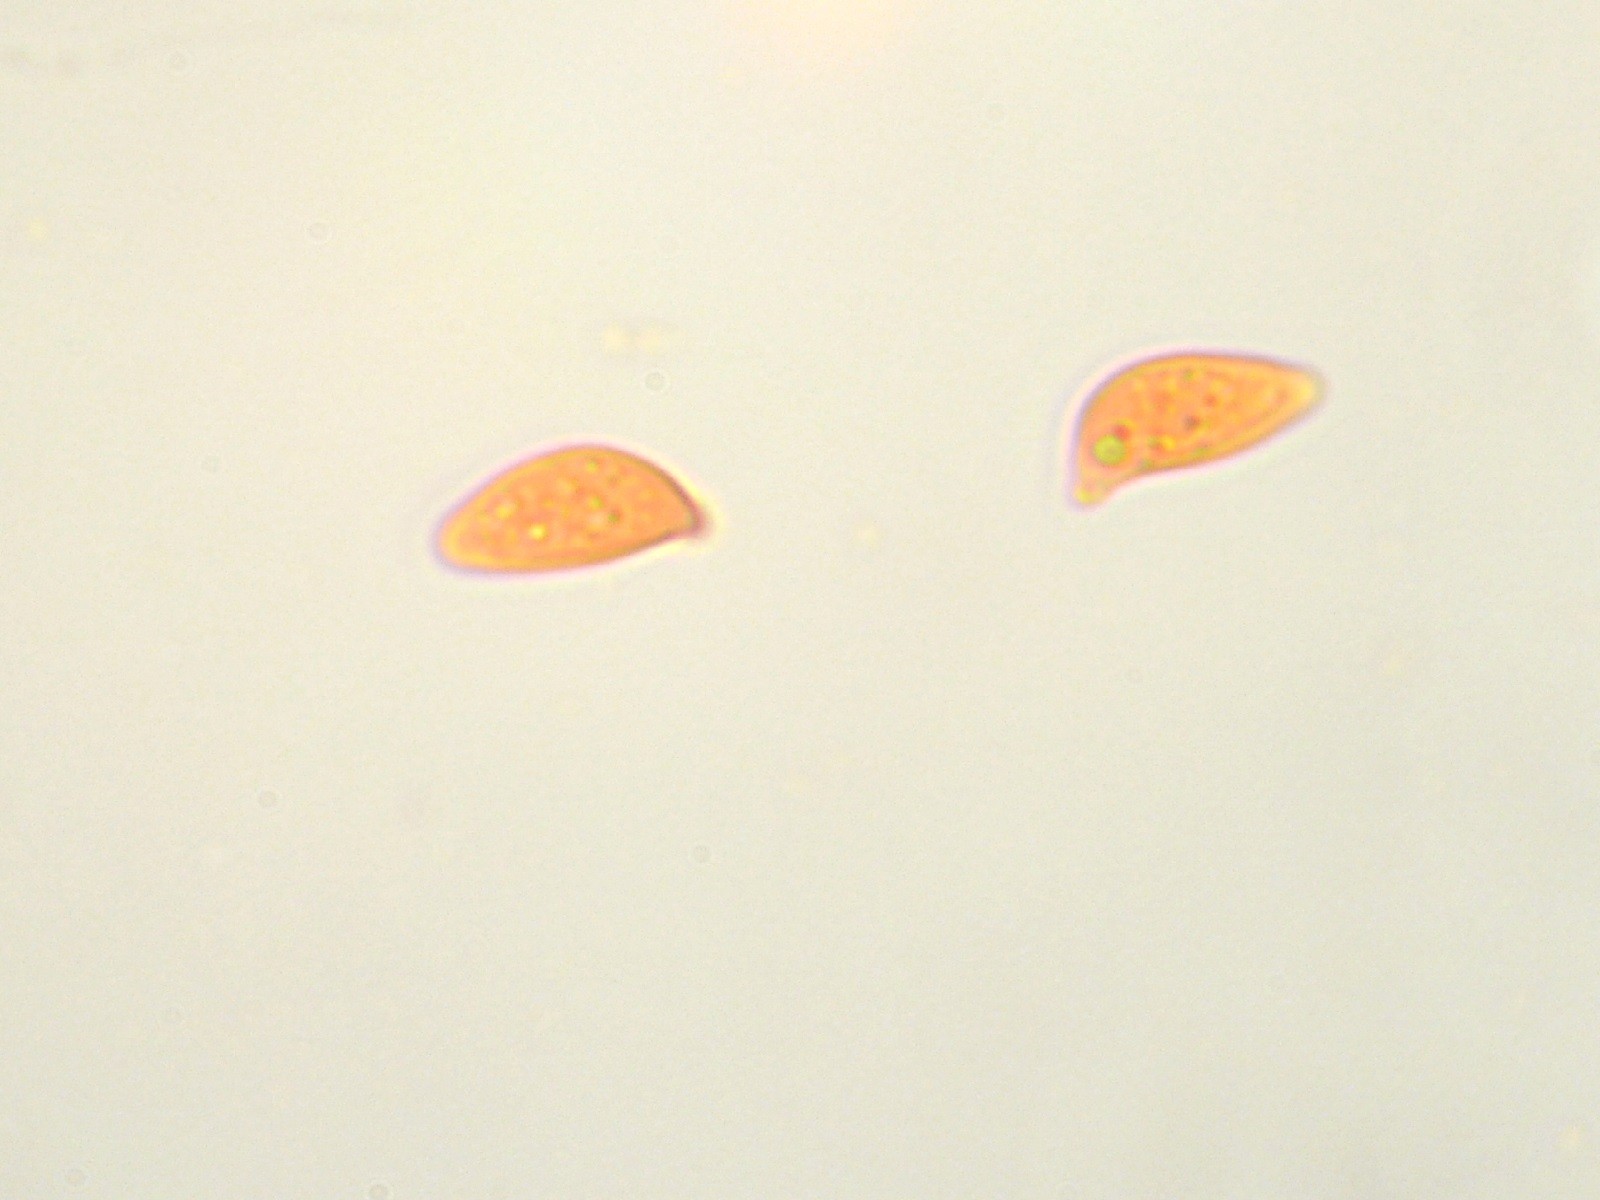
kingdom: Fungi
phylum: Basidiomycota
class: Agaricomycetes
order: Cantharellales
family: Botryobasidiaceae
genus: Botryobasidium
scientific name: Botryobasidium vagum
